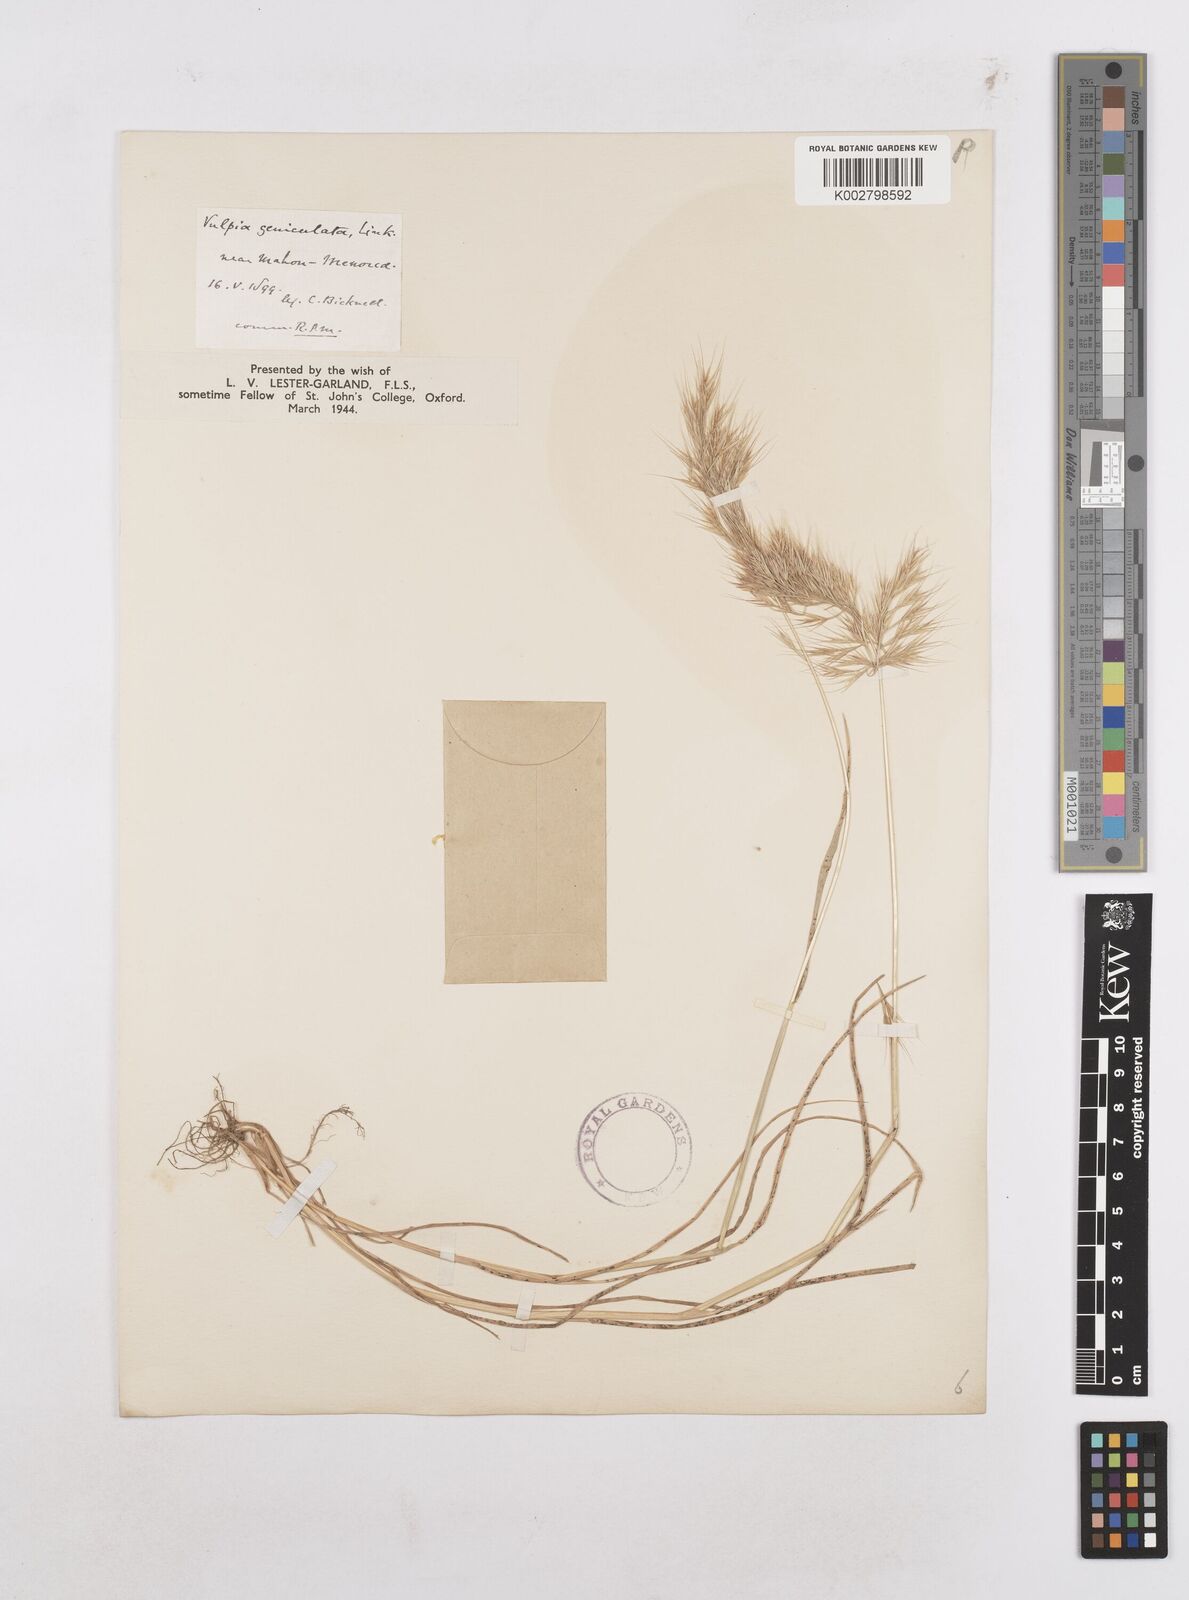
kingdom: Plantae
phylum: Tracheophyta
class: Liliopsida
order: Poales
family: Poaceae
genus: Festuca
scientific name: Festuca geniculata
